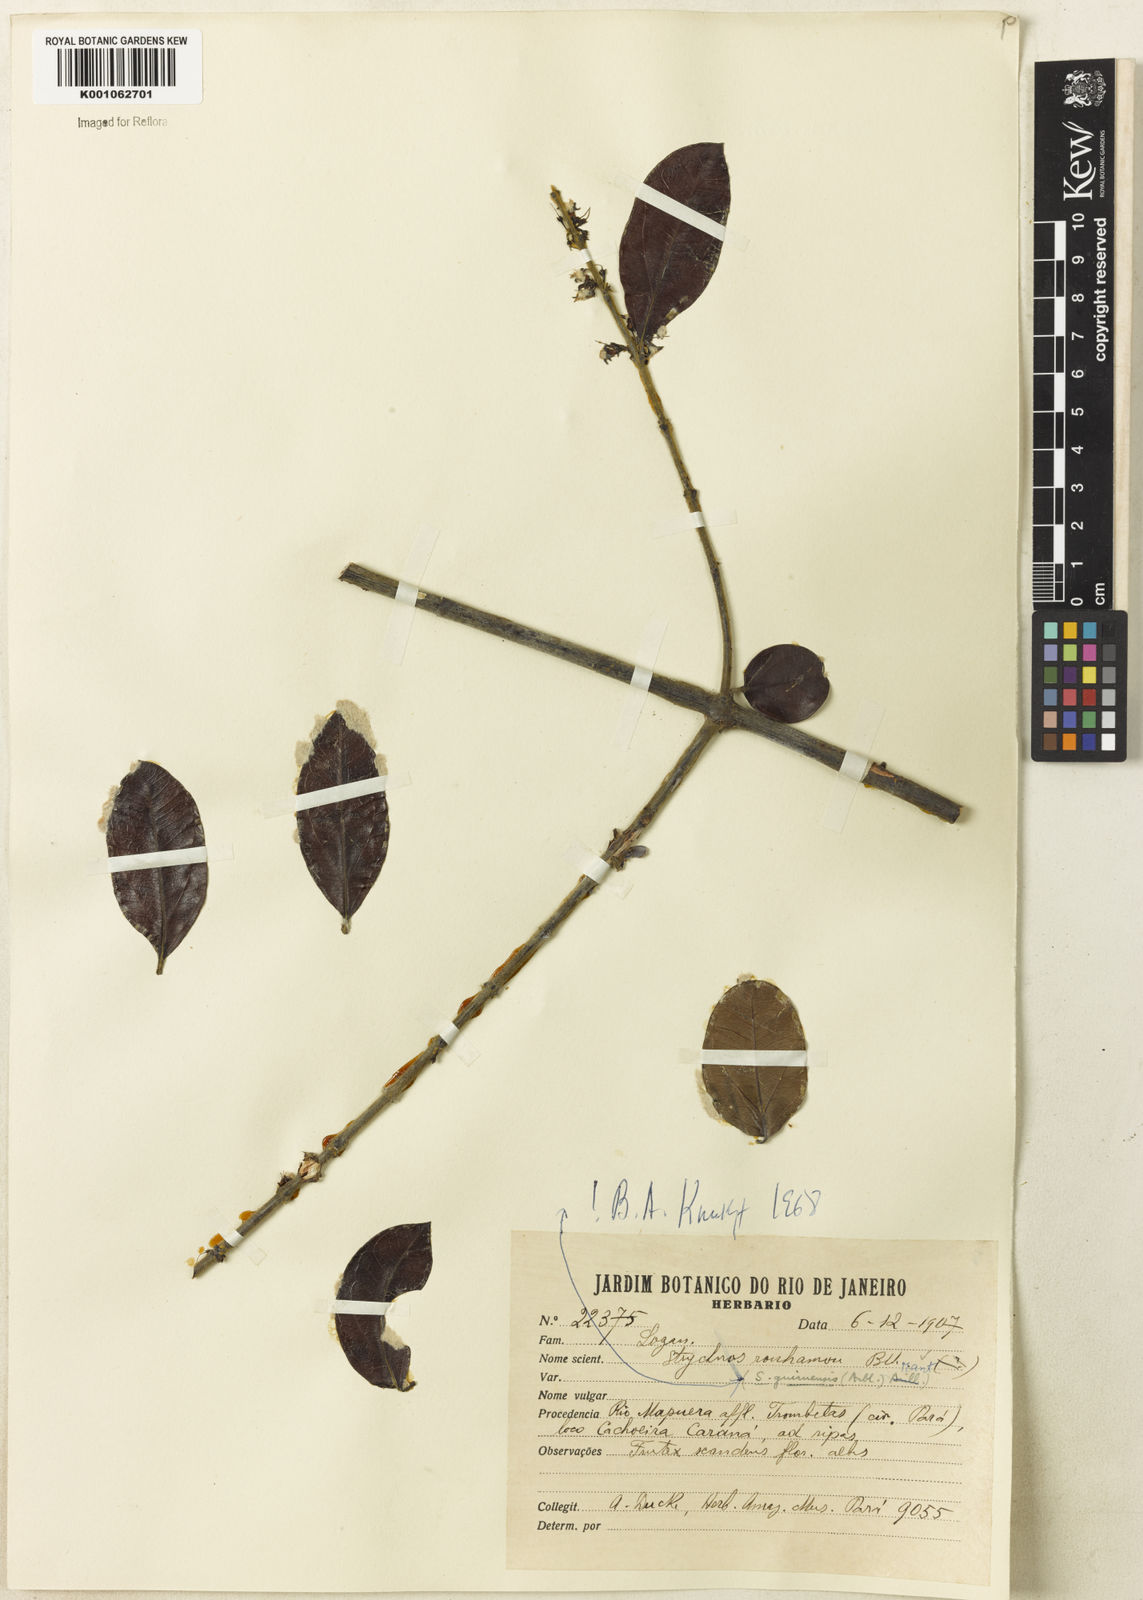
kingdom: Plantae
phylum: Tracheophyta
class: Magnoliopsida
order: Gentianales
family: Loganiaceae
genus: Strychnos
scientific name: Strychnos guianensis
